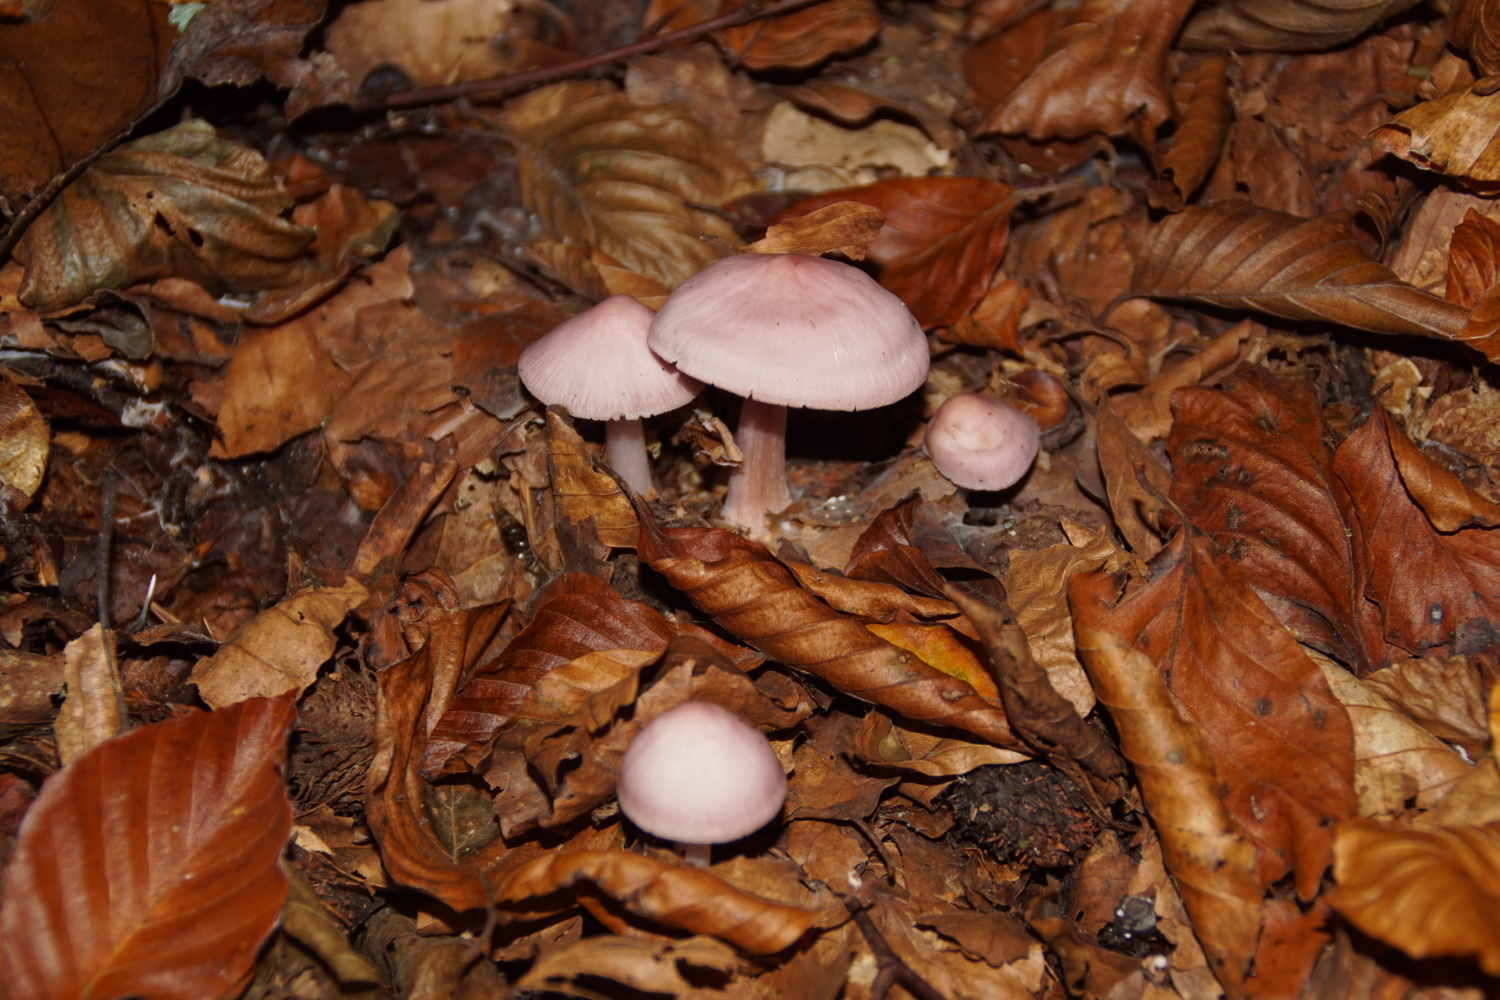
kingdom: Fungi
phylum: Basidiomycota
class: Agaricomycetes
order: Agaricales
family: Mycenaceae
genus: Mycena
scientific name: Mycena rosea
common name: rosa huesvamp
